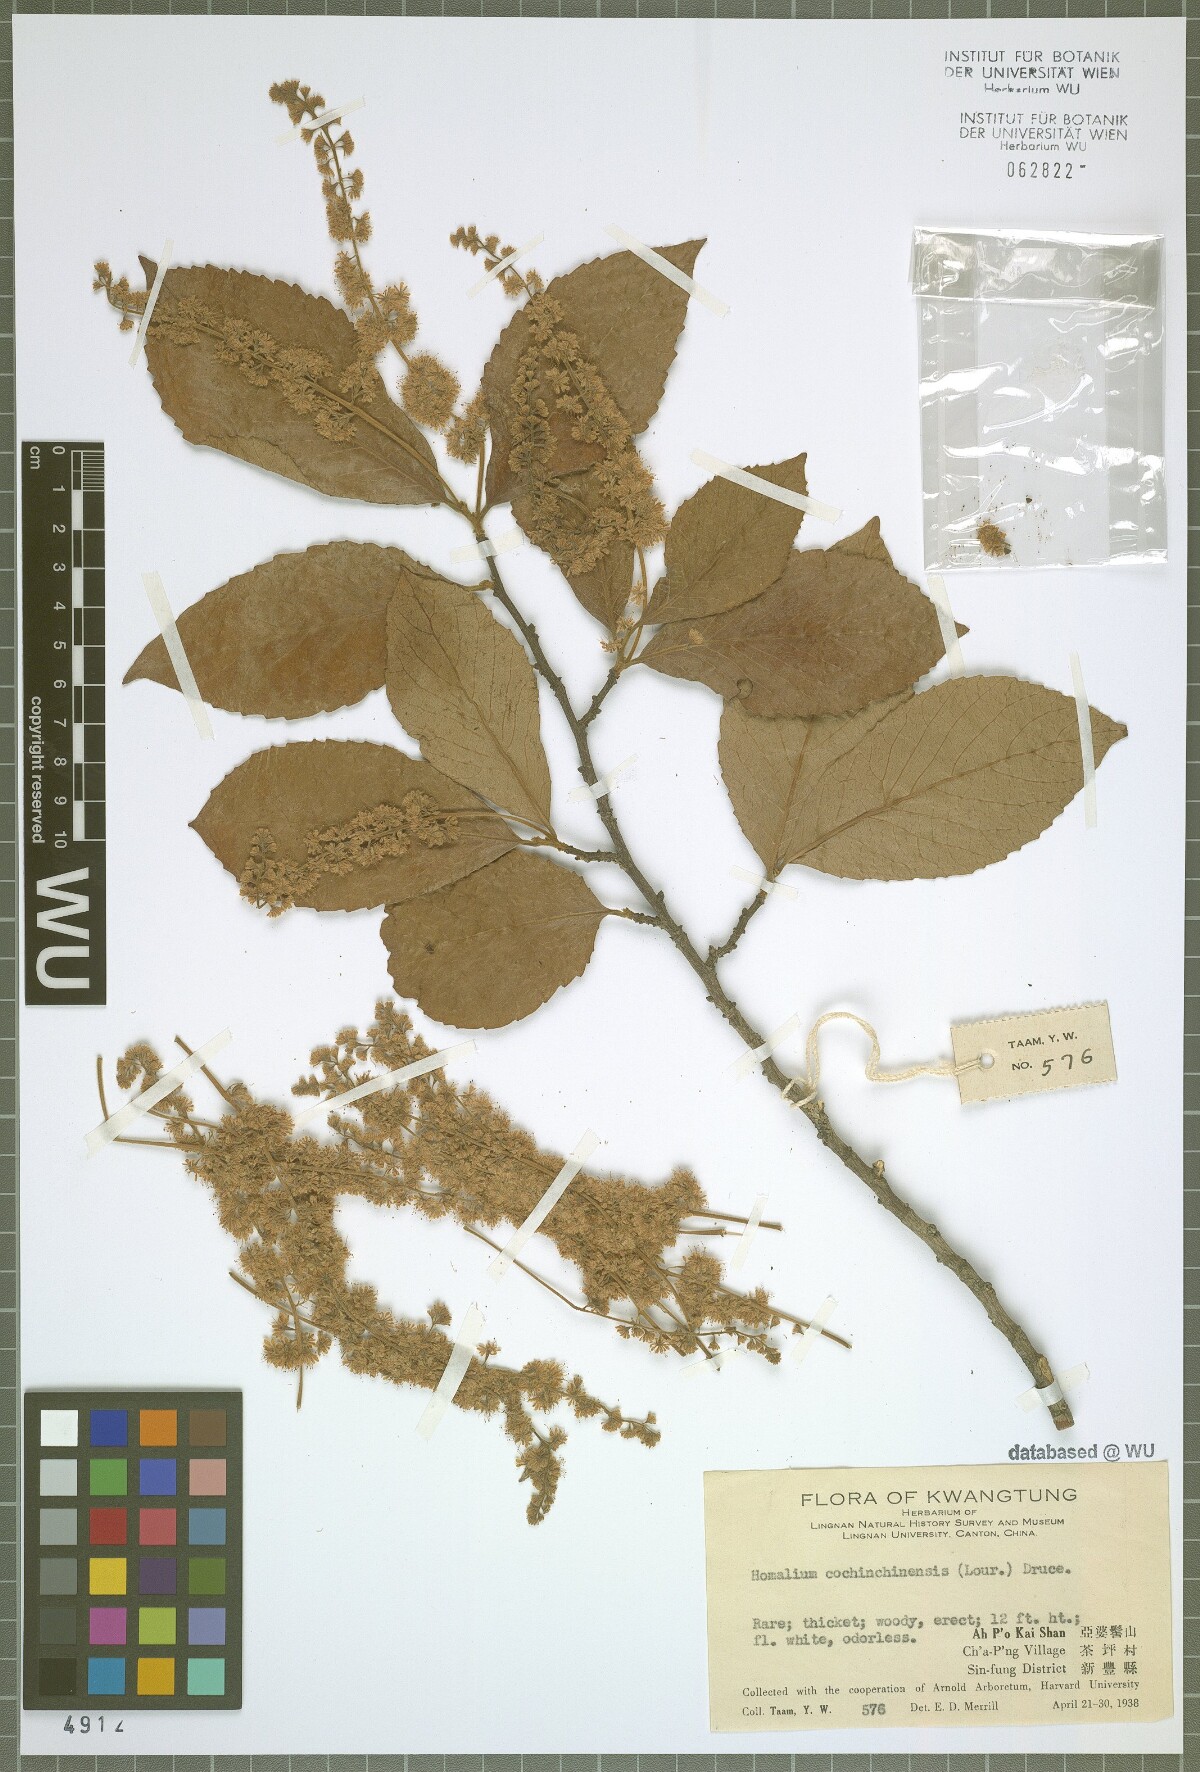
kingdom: Plantae
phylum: Tracheophyta
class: Magnoliopsida
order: Malpighiales
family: Salicaceae
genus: Homalium
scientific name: Homalium cochinchinensis
